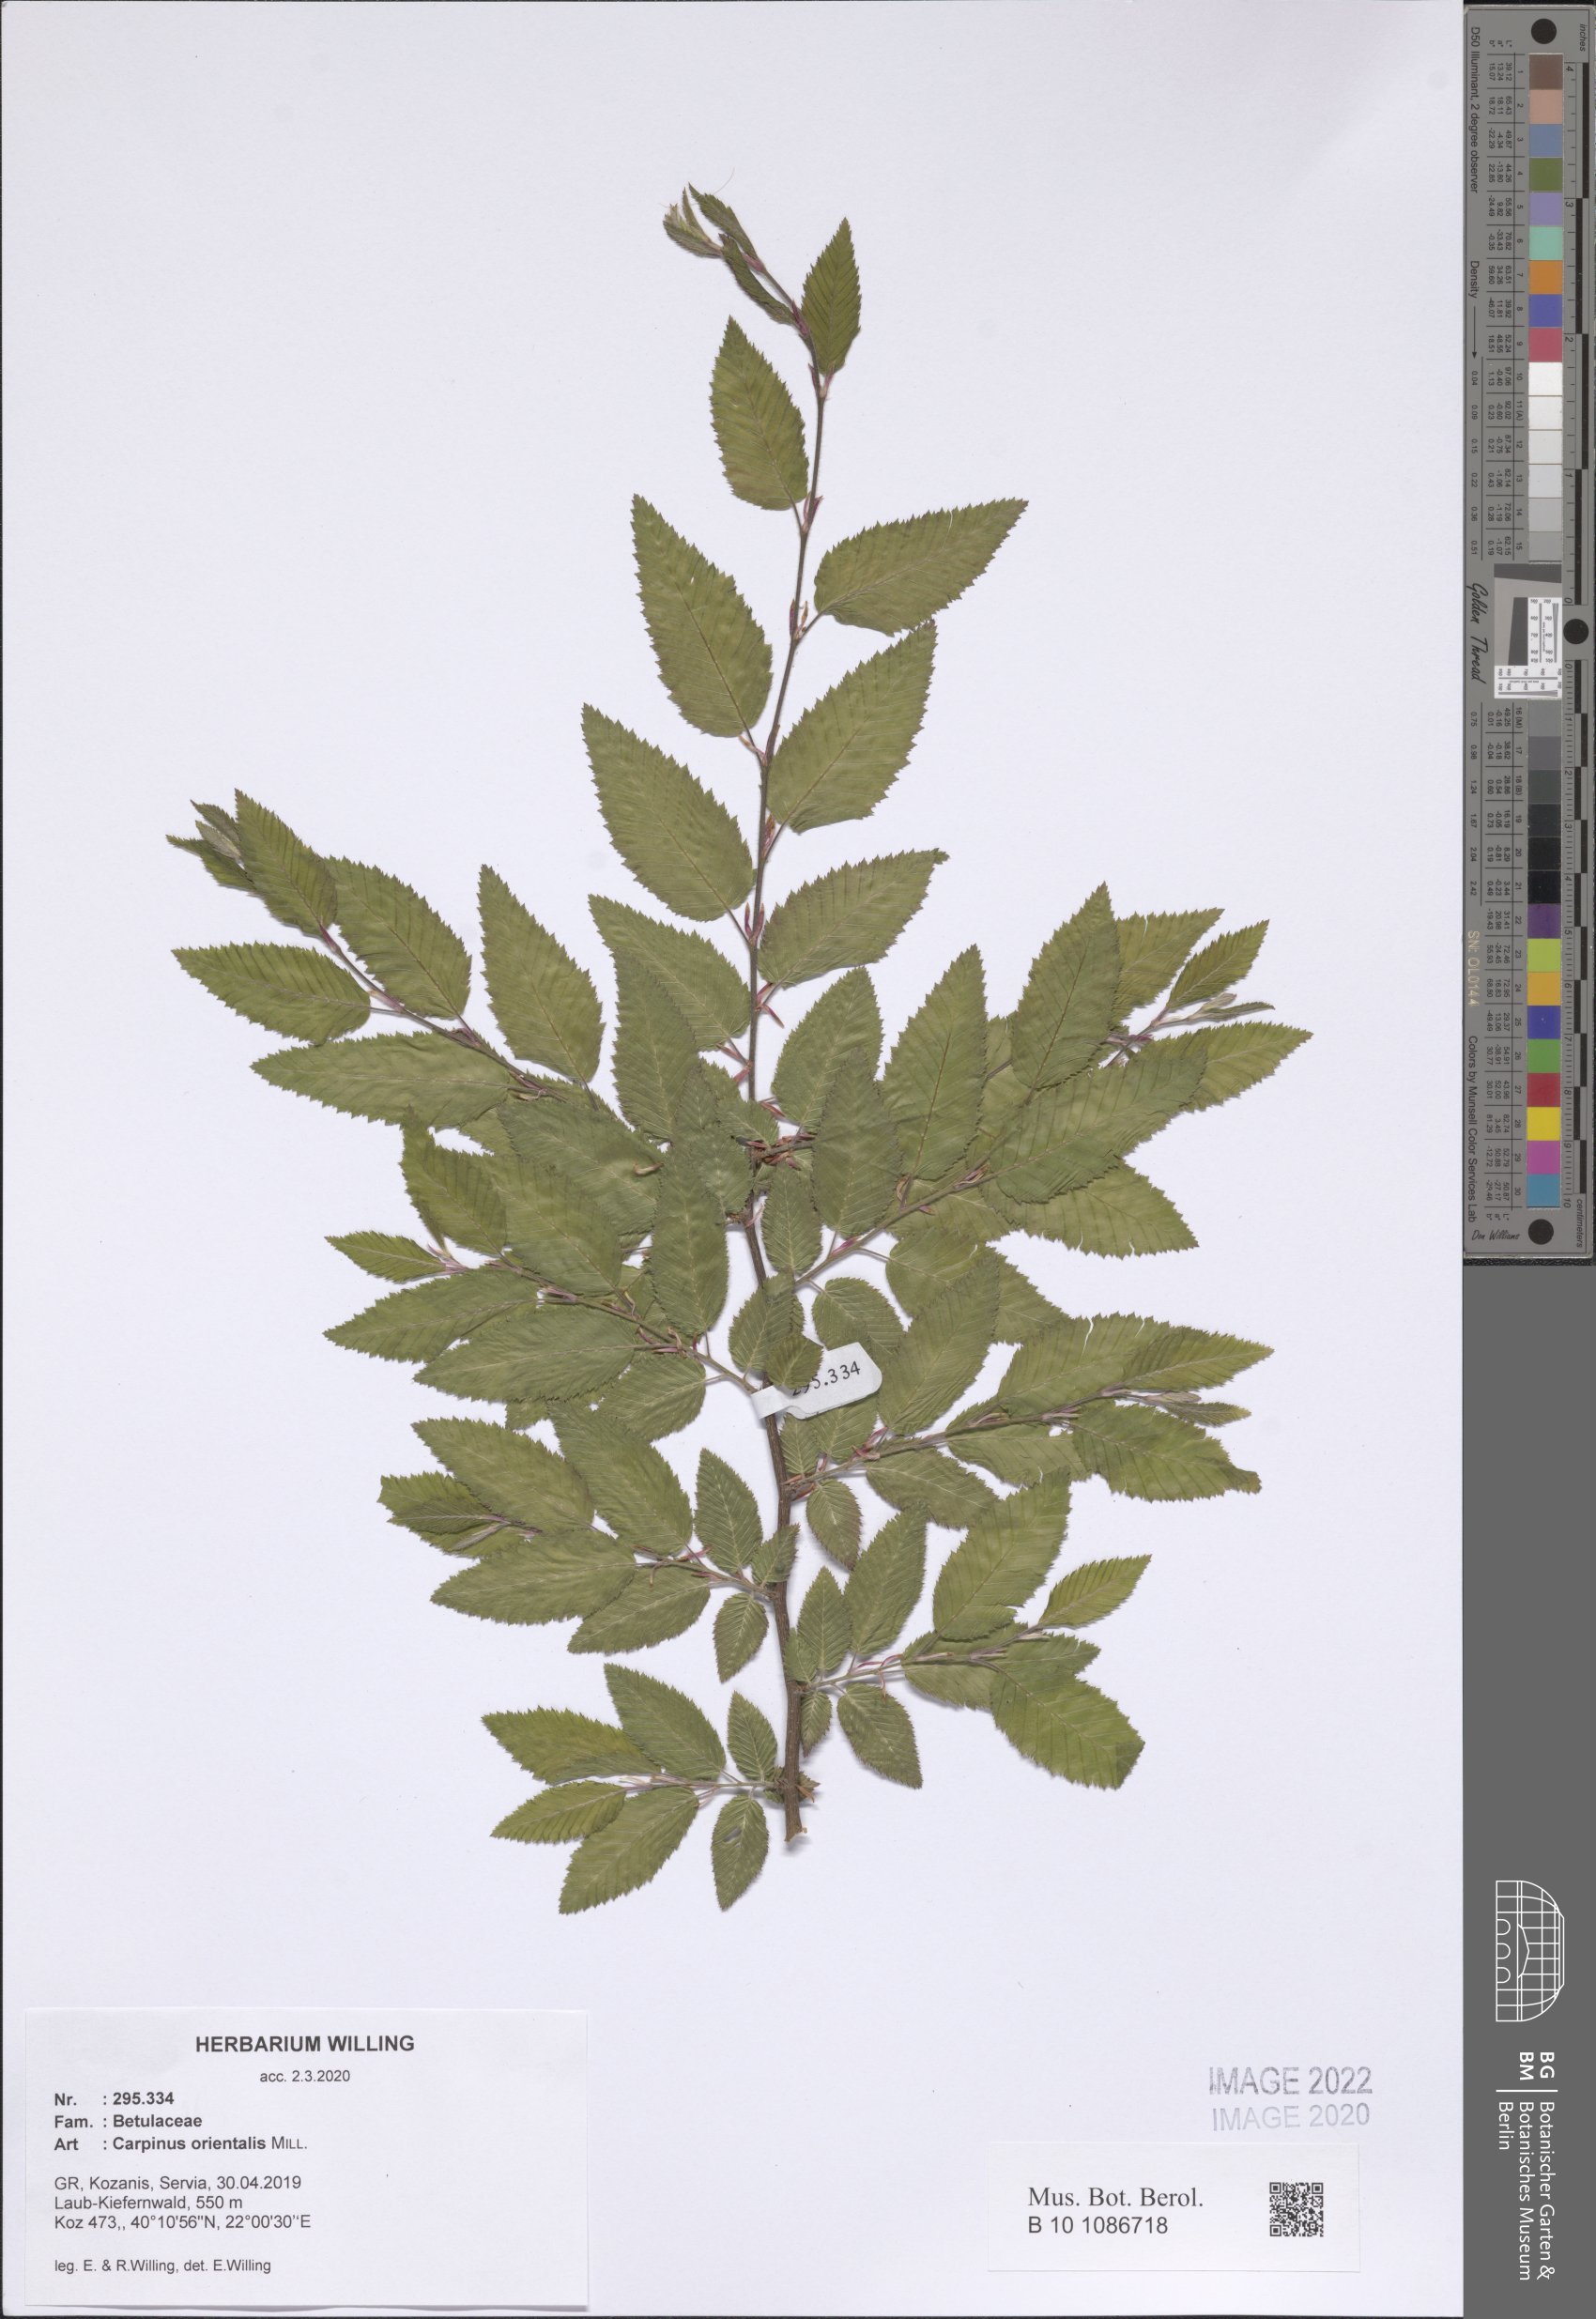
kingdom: Plantae
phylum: Tracheophyta
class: Magnoliopsida
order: Fagales
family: Betulaceae
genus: Carpinus
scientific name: Carpinus orientalis
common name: Eastern hornbeam
